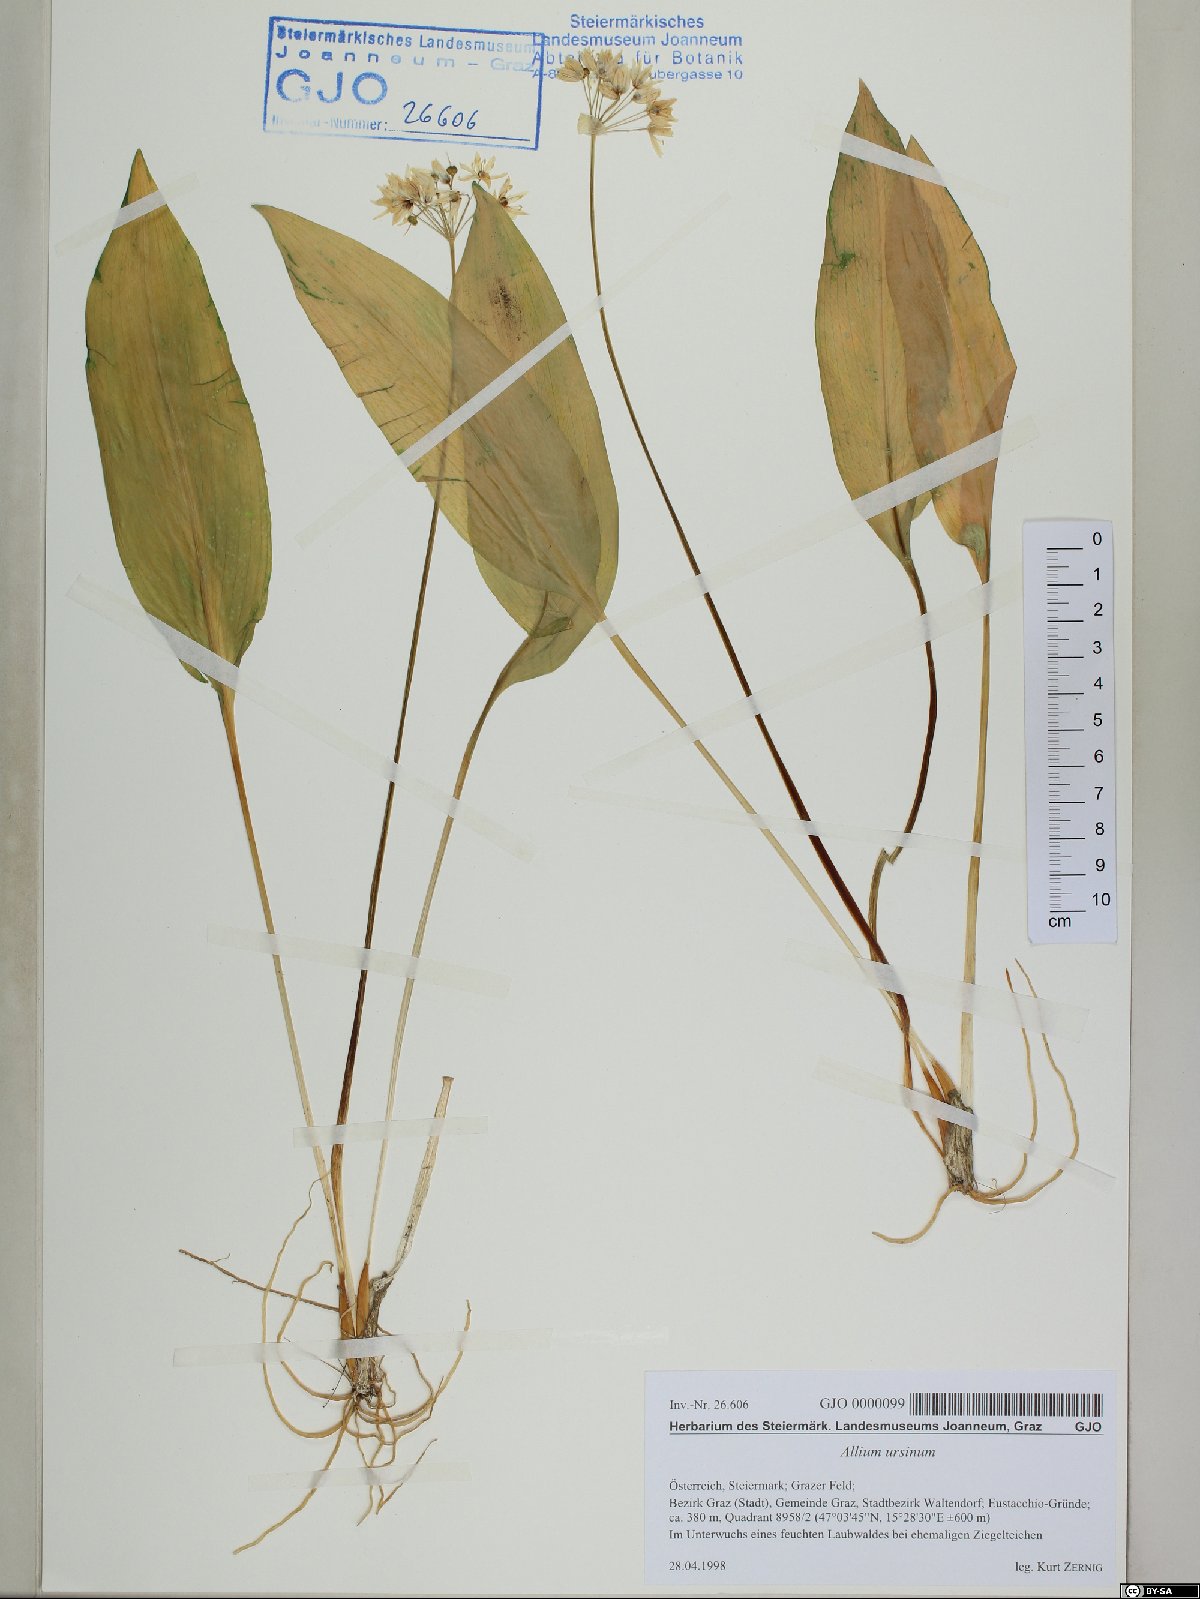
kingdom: Plantae
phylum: Tracheophyta
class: Liliopsida
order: Asparagales
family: Amaryllidaceae
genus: Allium
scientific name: Allium ursinum
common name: Ramsons
